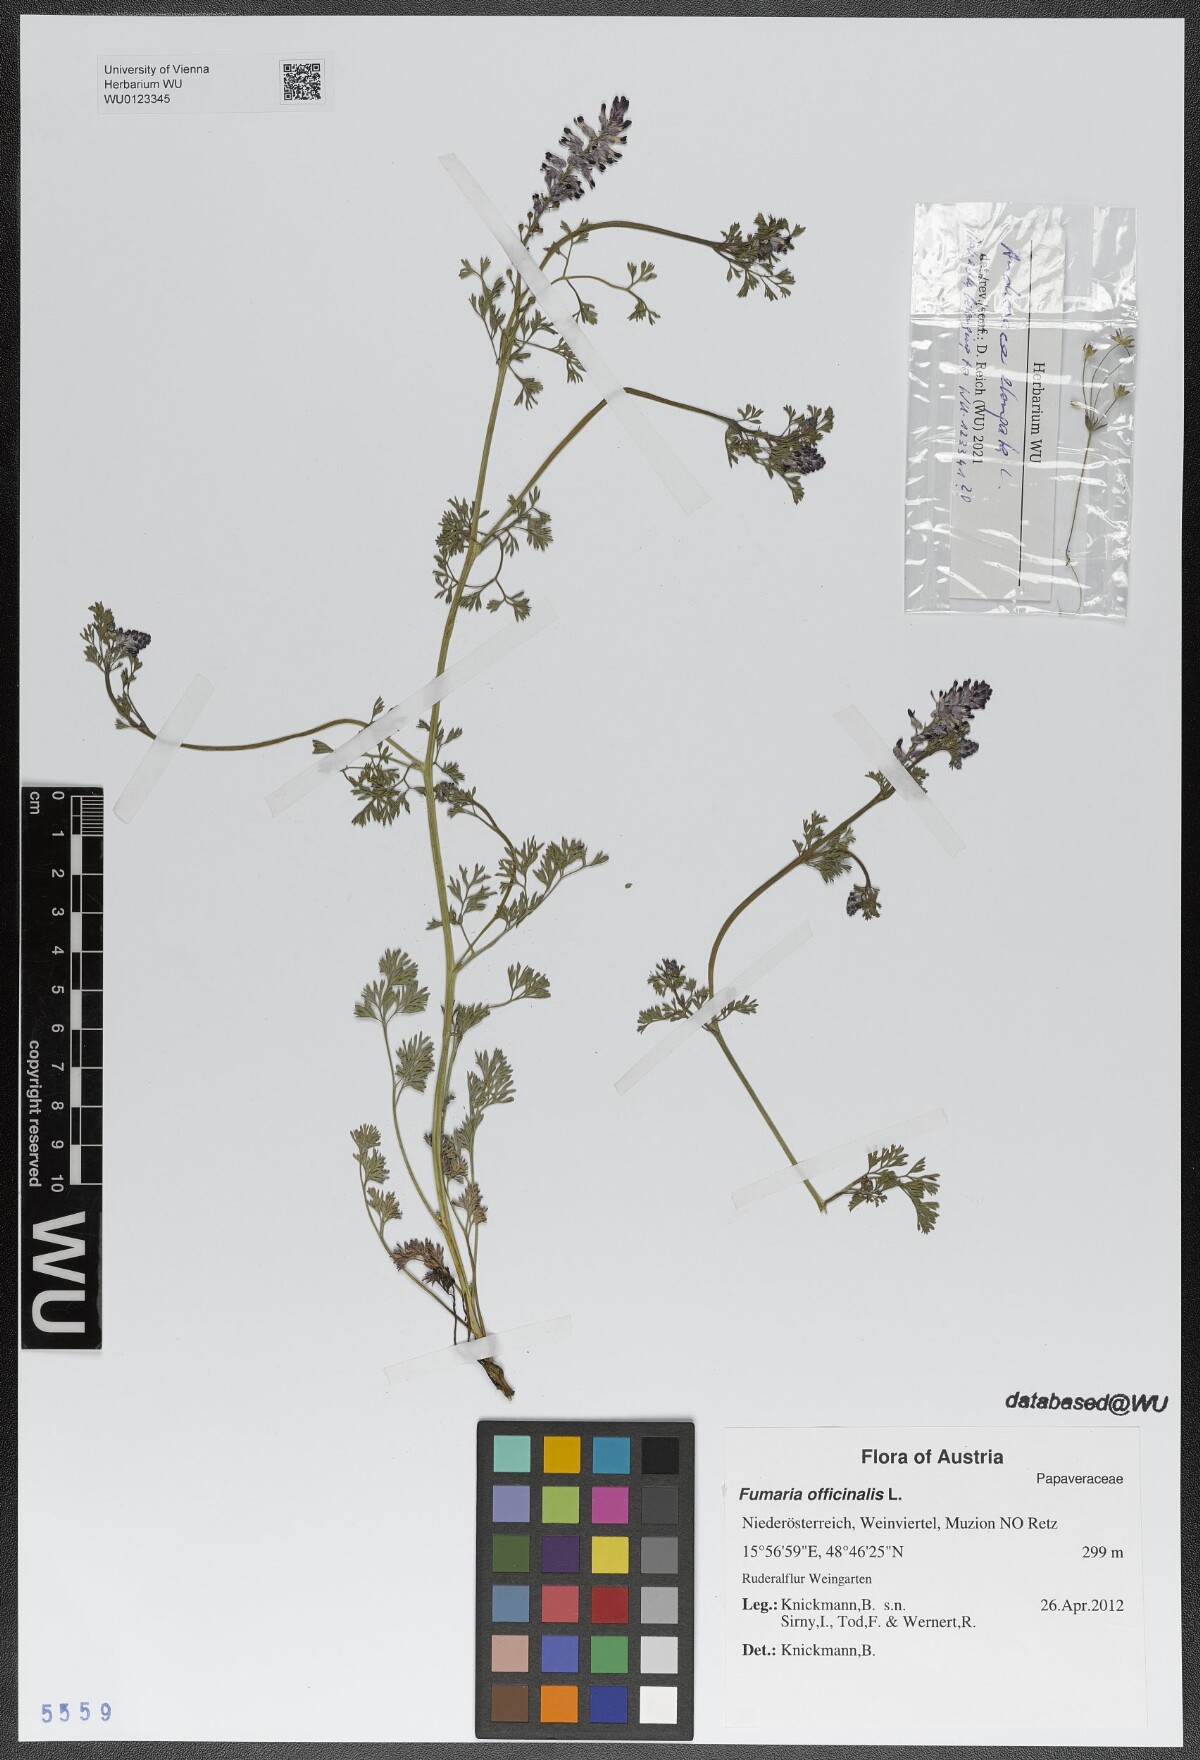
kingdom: Plantae
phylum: Tracheophyta
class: Magnoliopsida
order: Ranunculales
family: Papaveraceae
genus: Fumaria
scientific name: Fumaria officinalis
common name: Common fumitory
